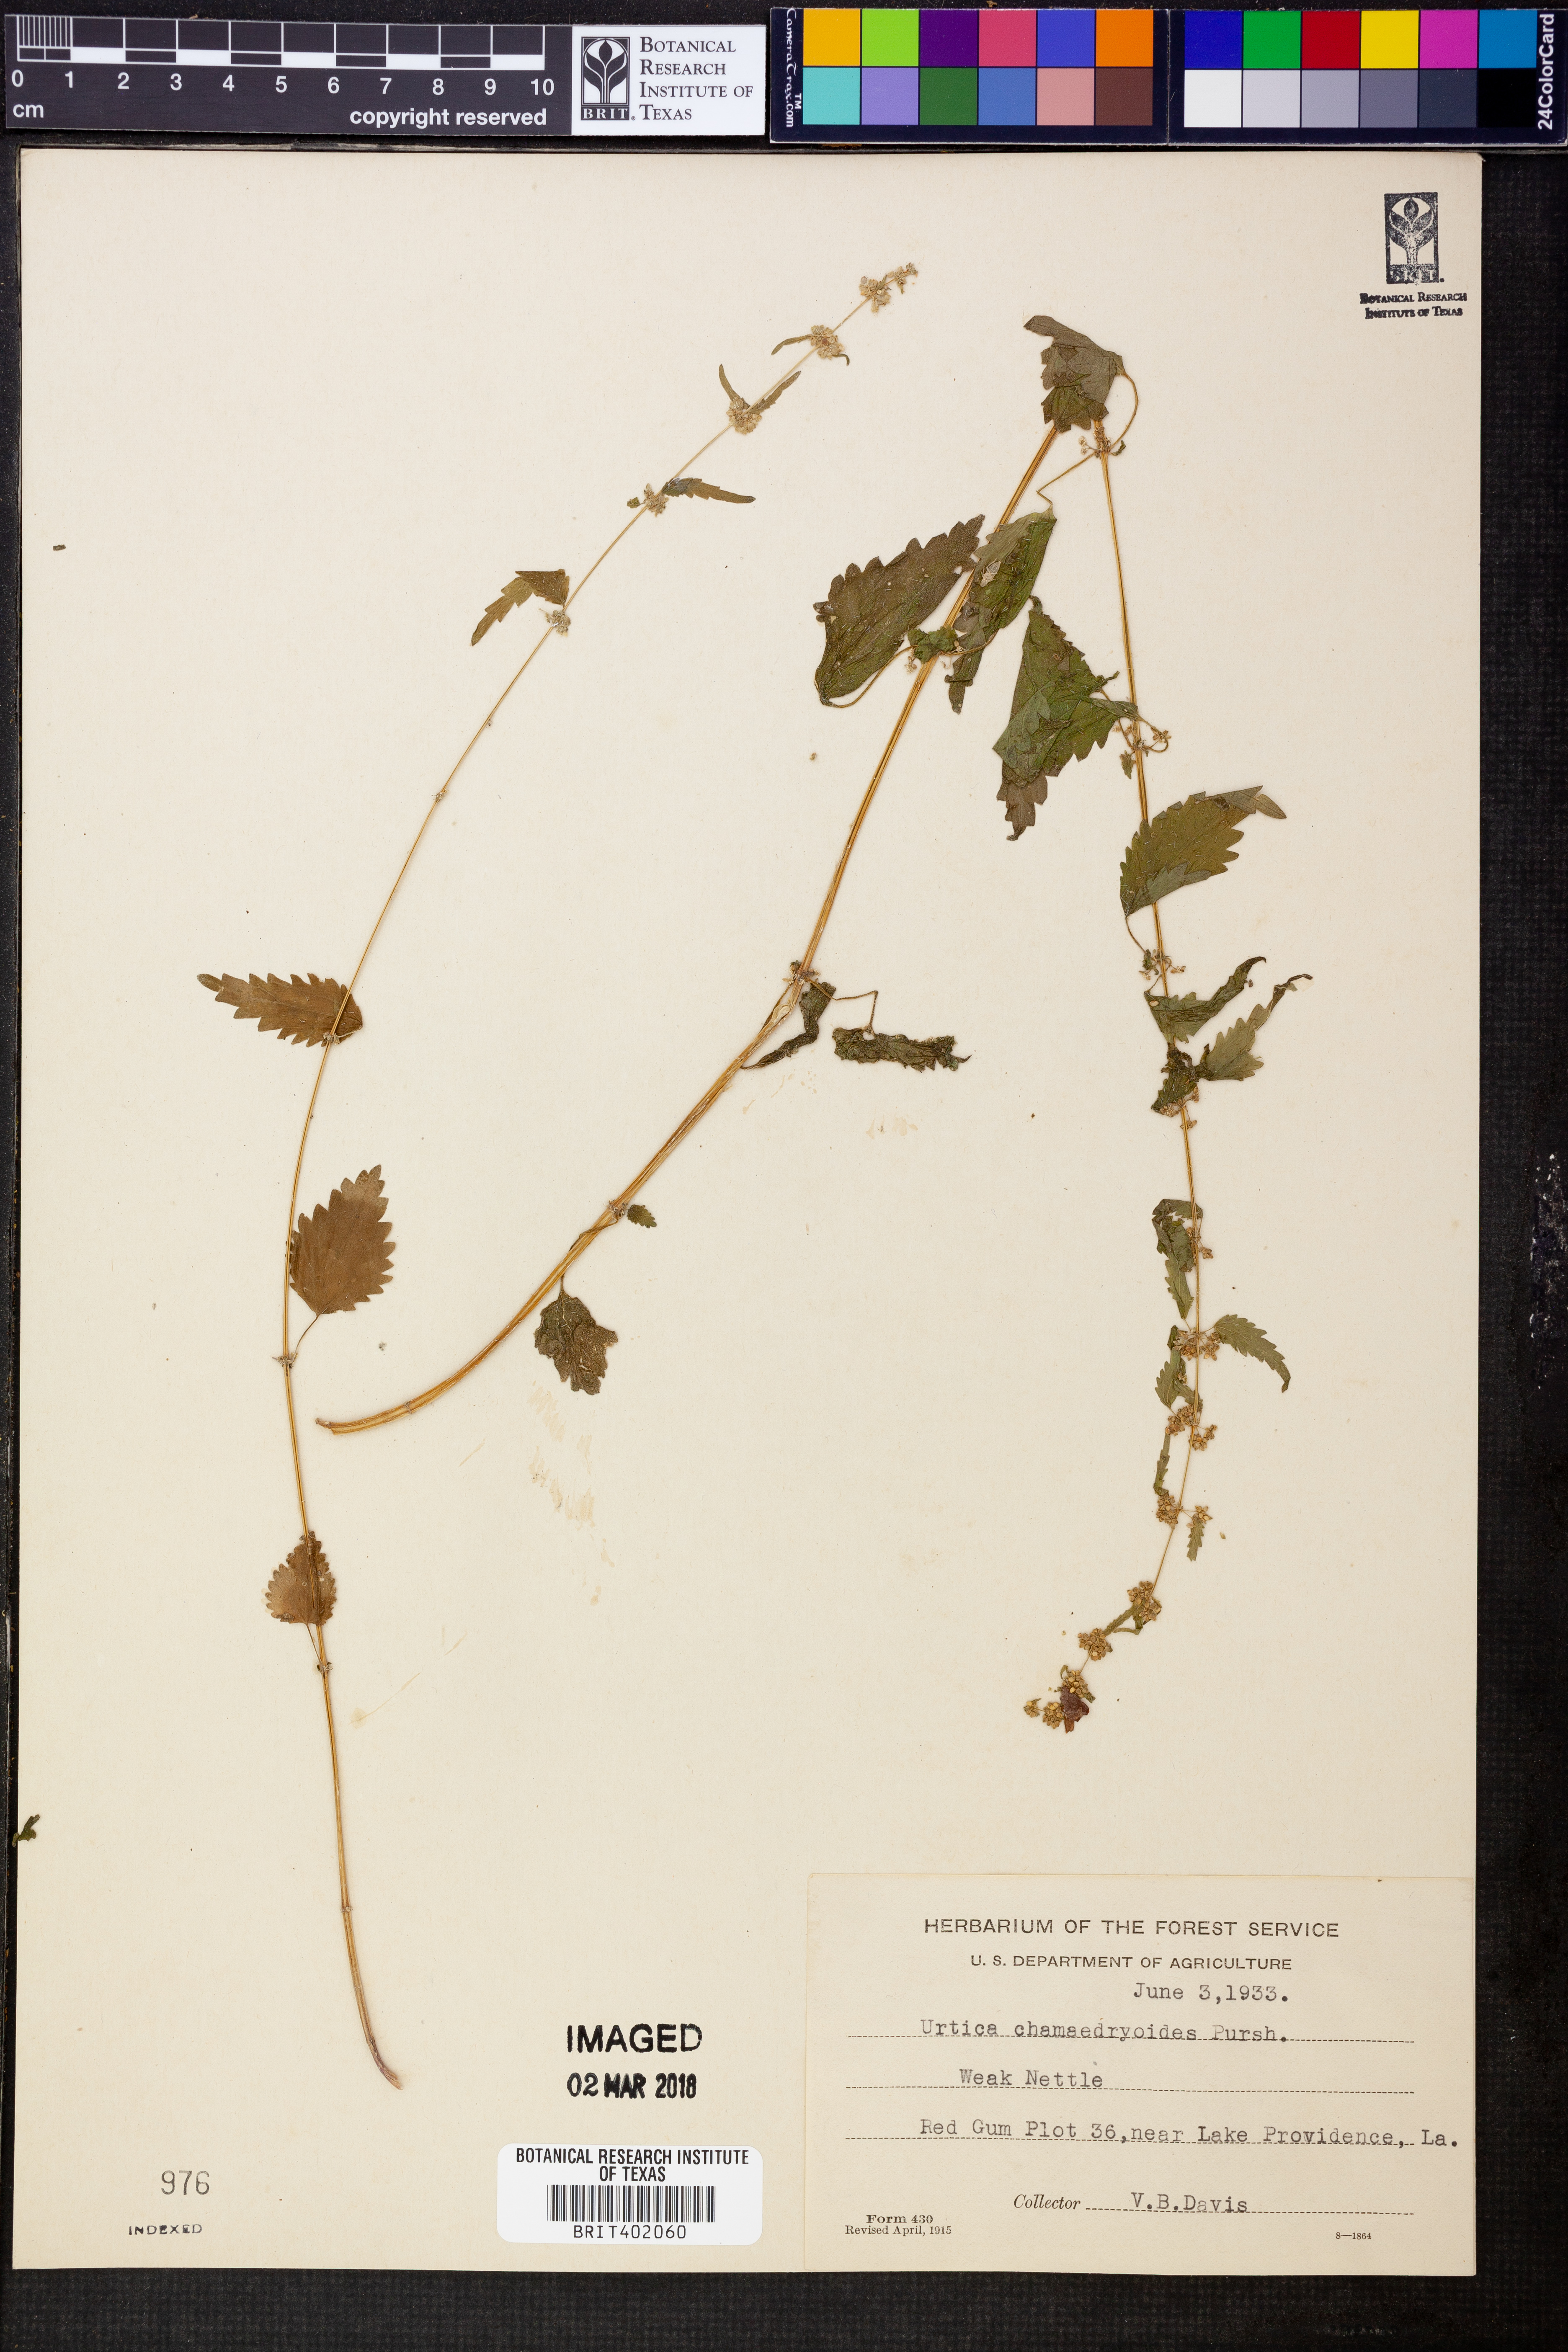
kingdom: Plantae
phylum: Tracheophyta
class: Magnoliopsida
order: Rosales
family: Urticaceae
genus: Urtica
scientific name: Urtica chamaedryoides
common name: Heart-leaf nettle
